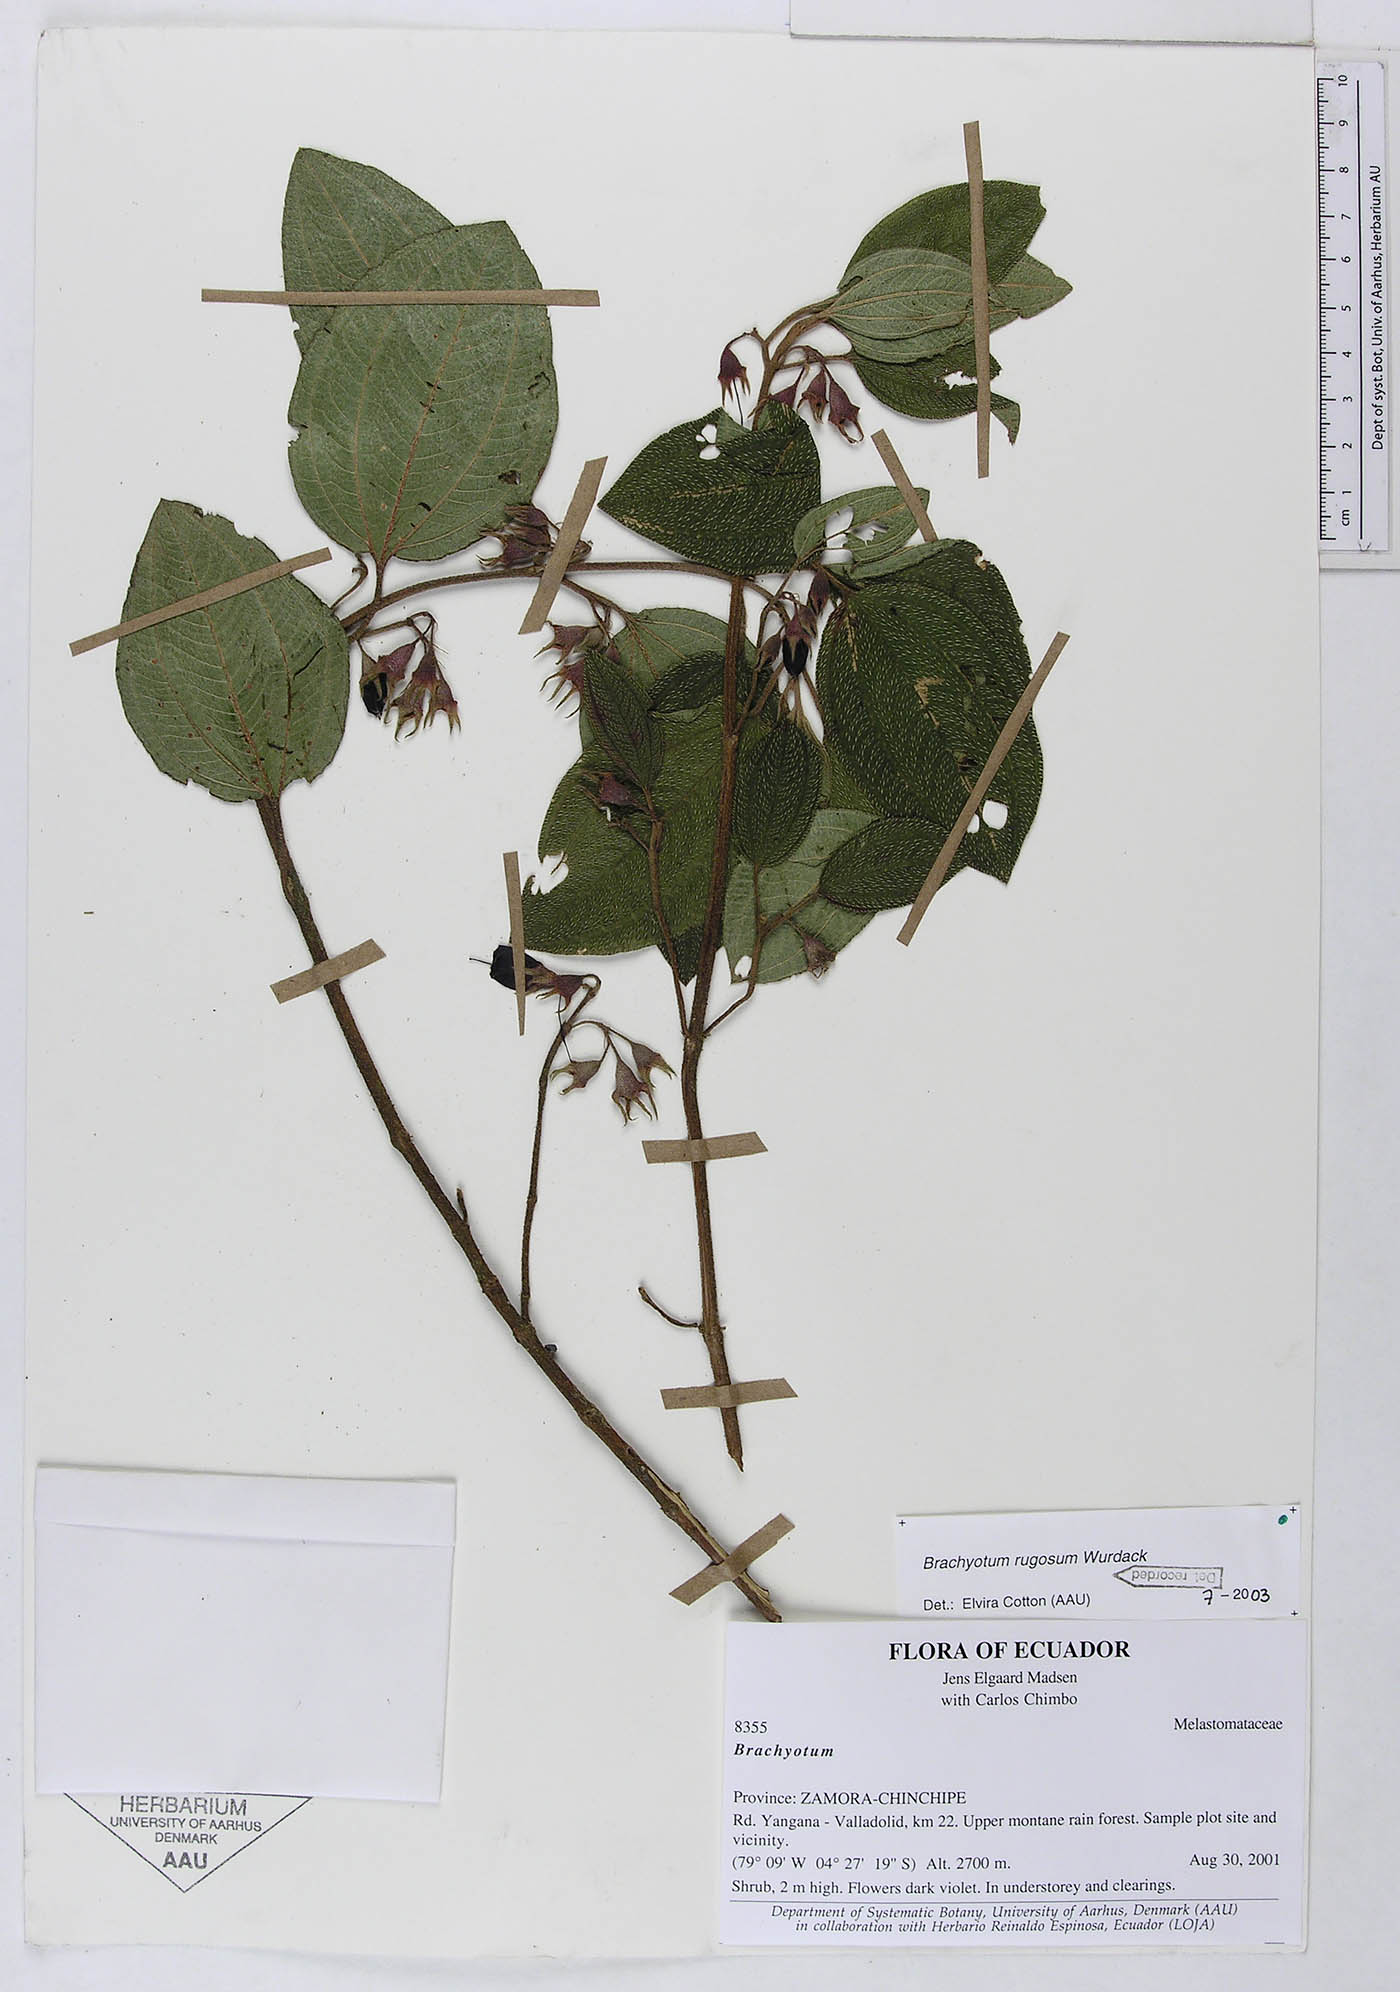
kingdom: Plantae
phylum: Tracheophyta
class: Magnoliopsida
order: Myrtales
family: Melastomataceae
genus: Brachyotum
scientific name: Brachyotum rugosum
